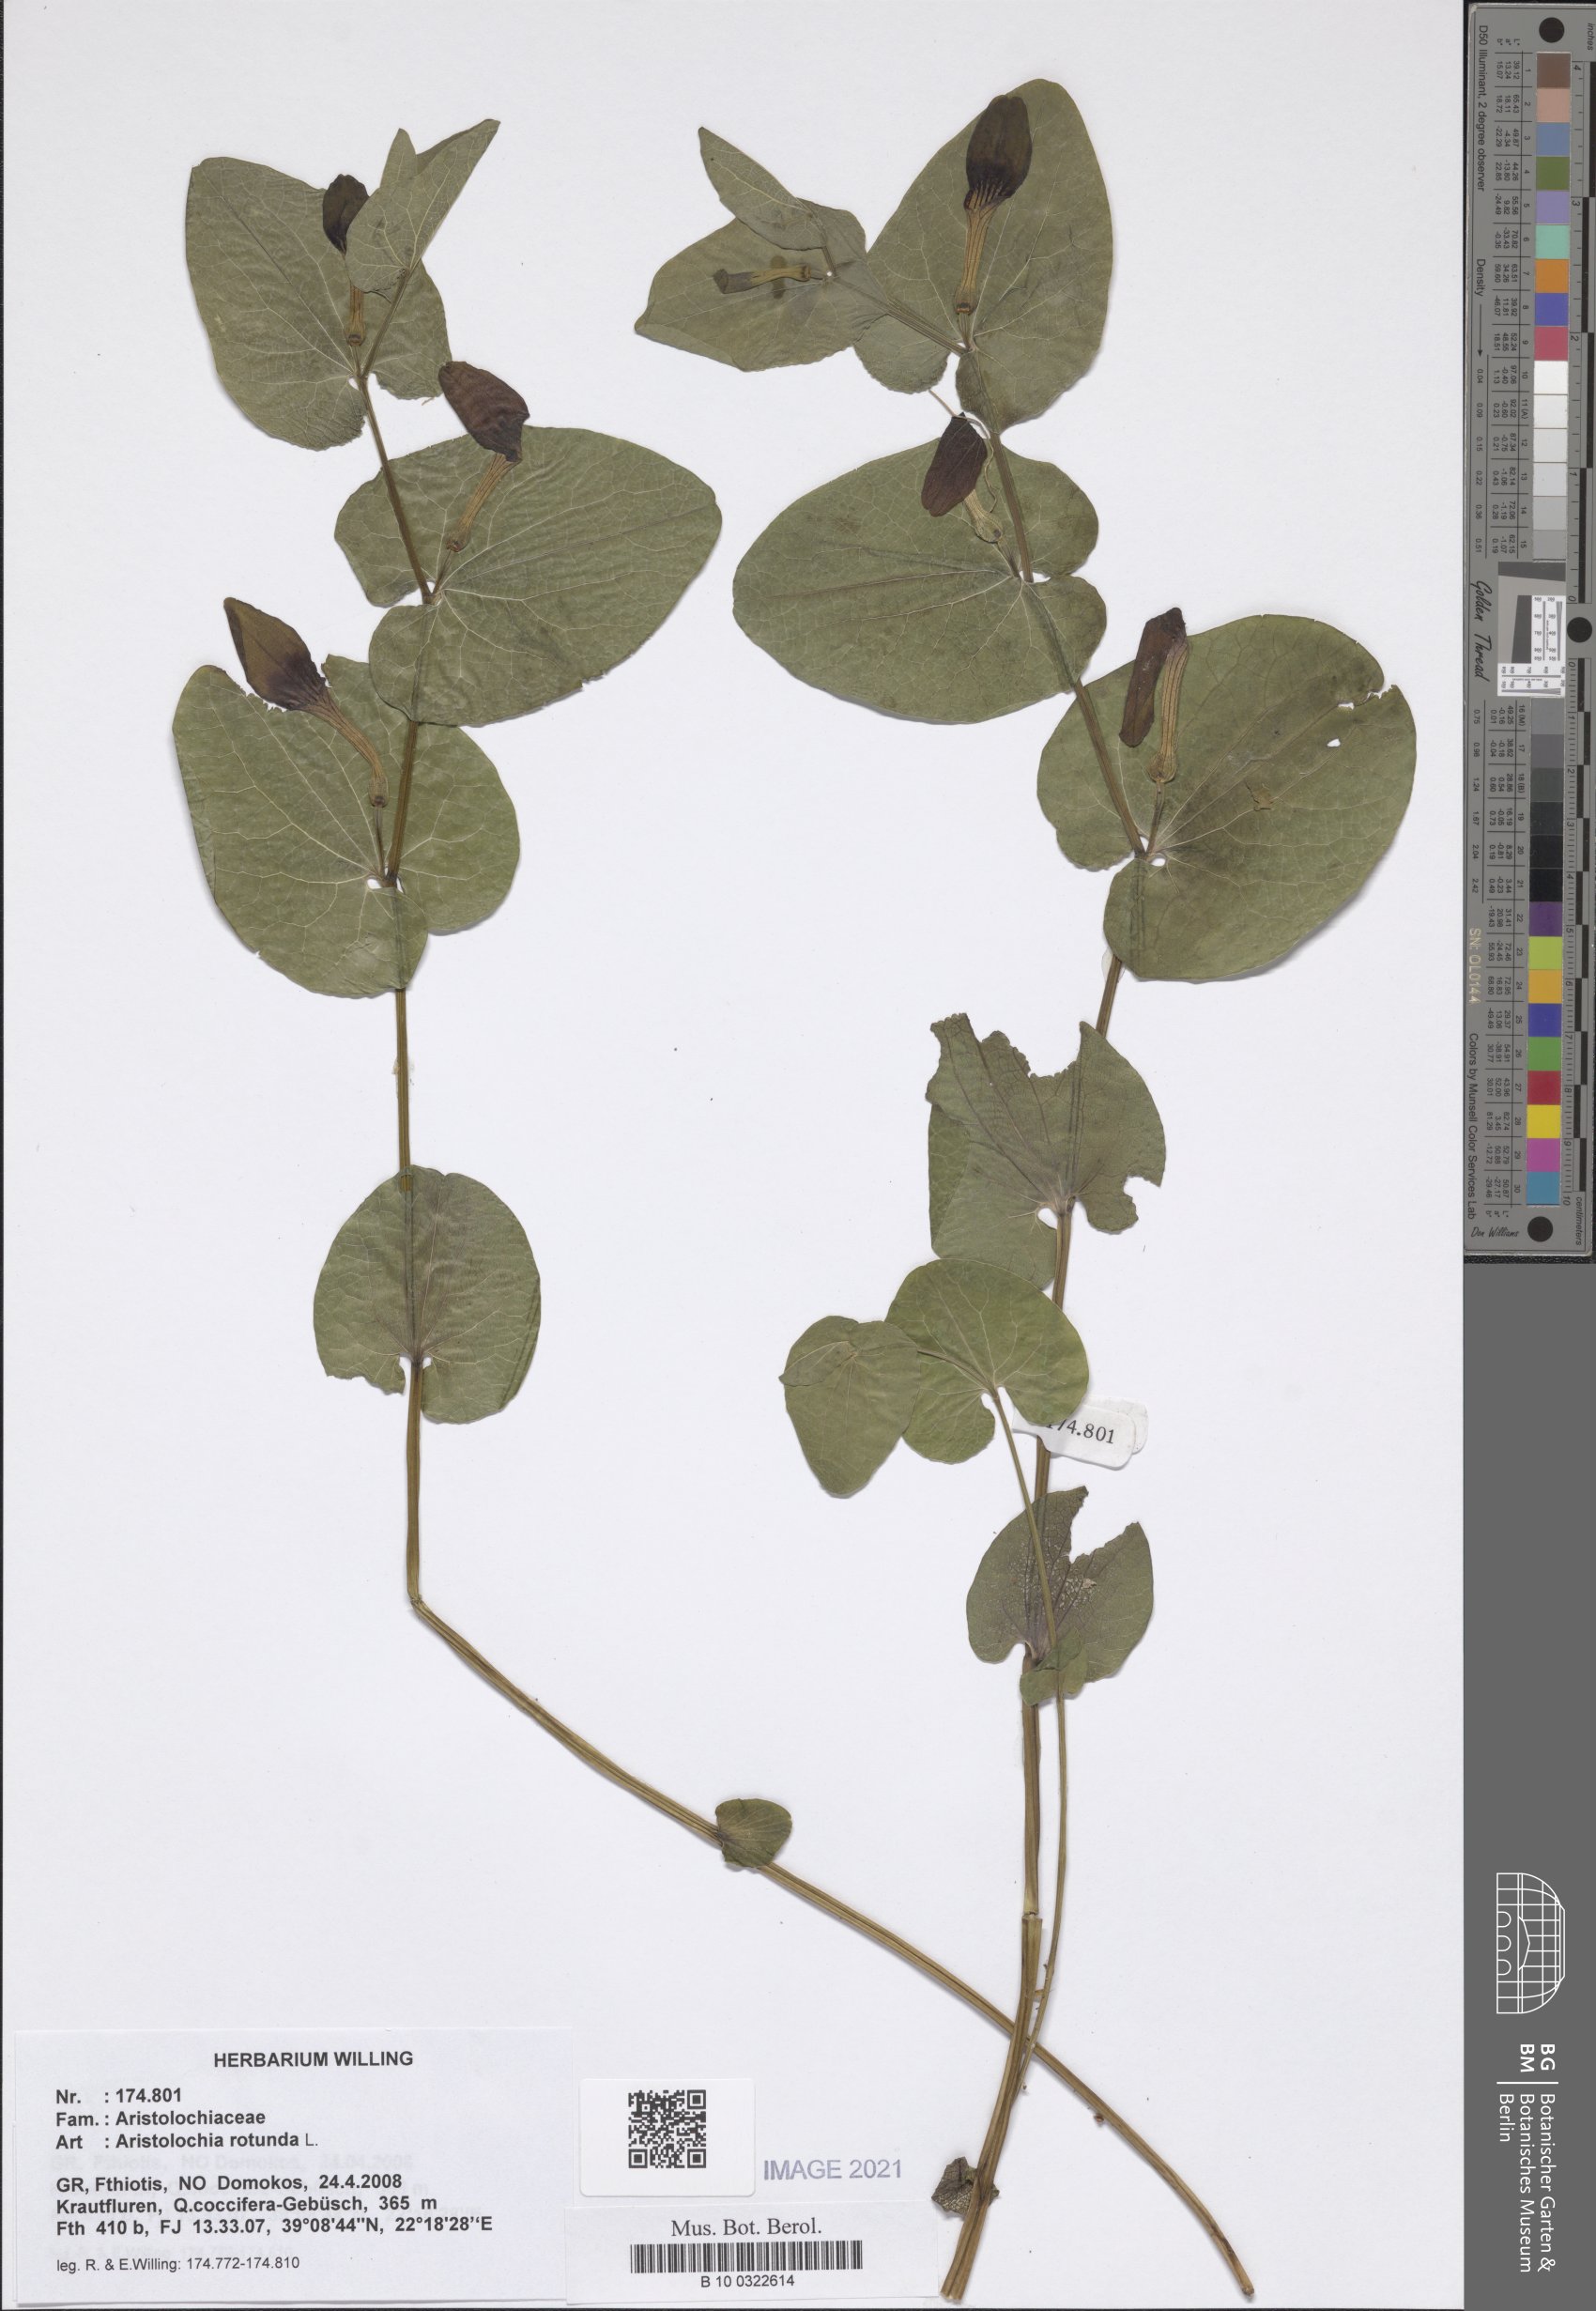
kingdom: Plantae
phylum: Tracheophyta
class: Magnoliopsida
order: Piperales
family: Aristolochiaceae
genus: Aristolochia
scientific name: Aristolochia rotunda
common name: Smearwort
